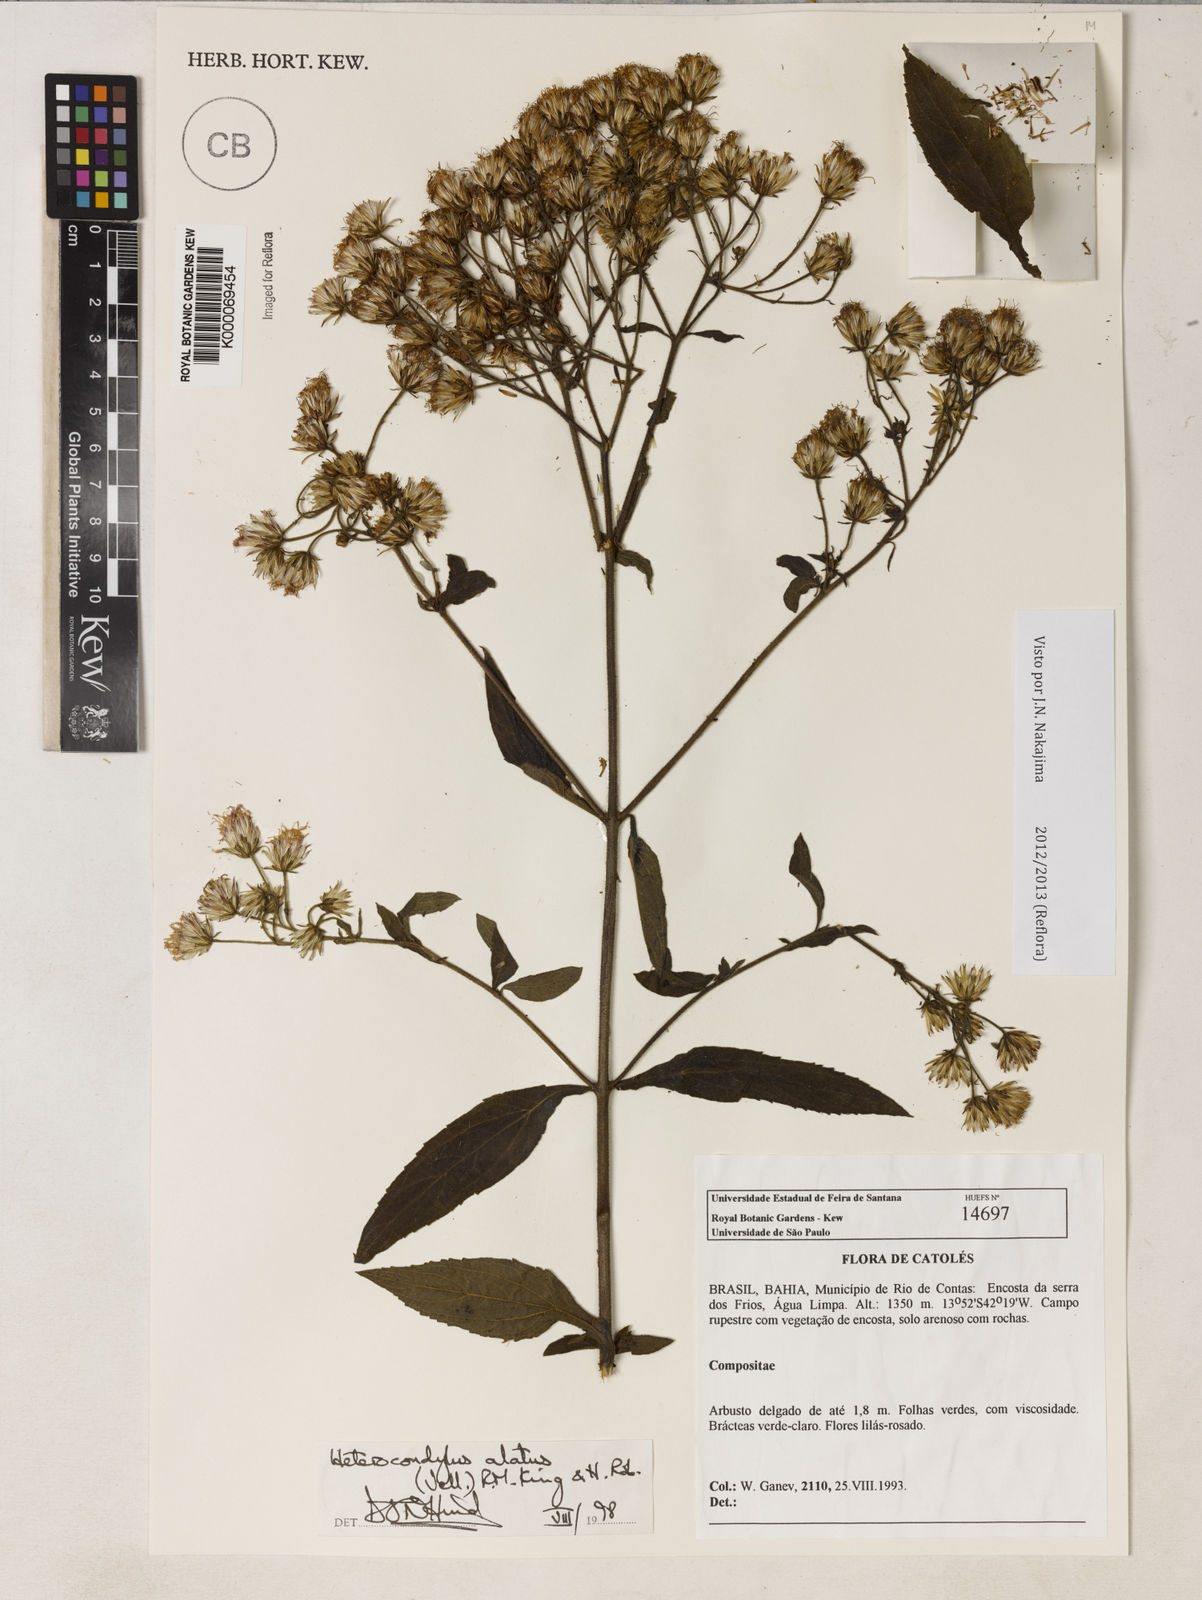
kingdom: Plantae
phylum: Tracheophyta
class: Magnoliopsida
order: Asterales
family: Asteraceae
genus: Heterocondylus
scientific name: Heterocondylus alatus
